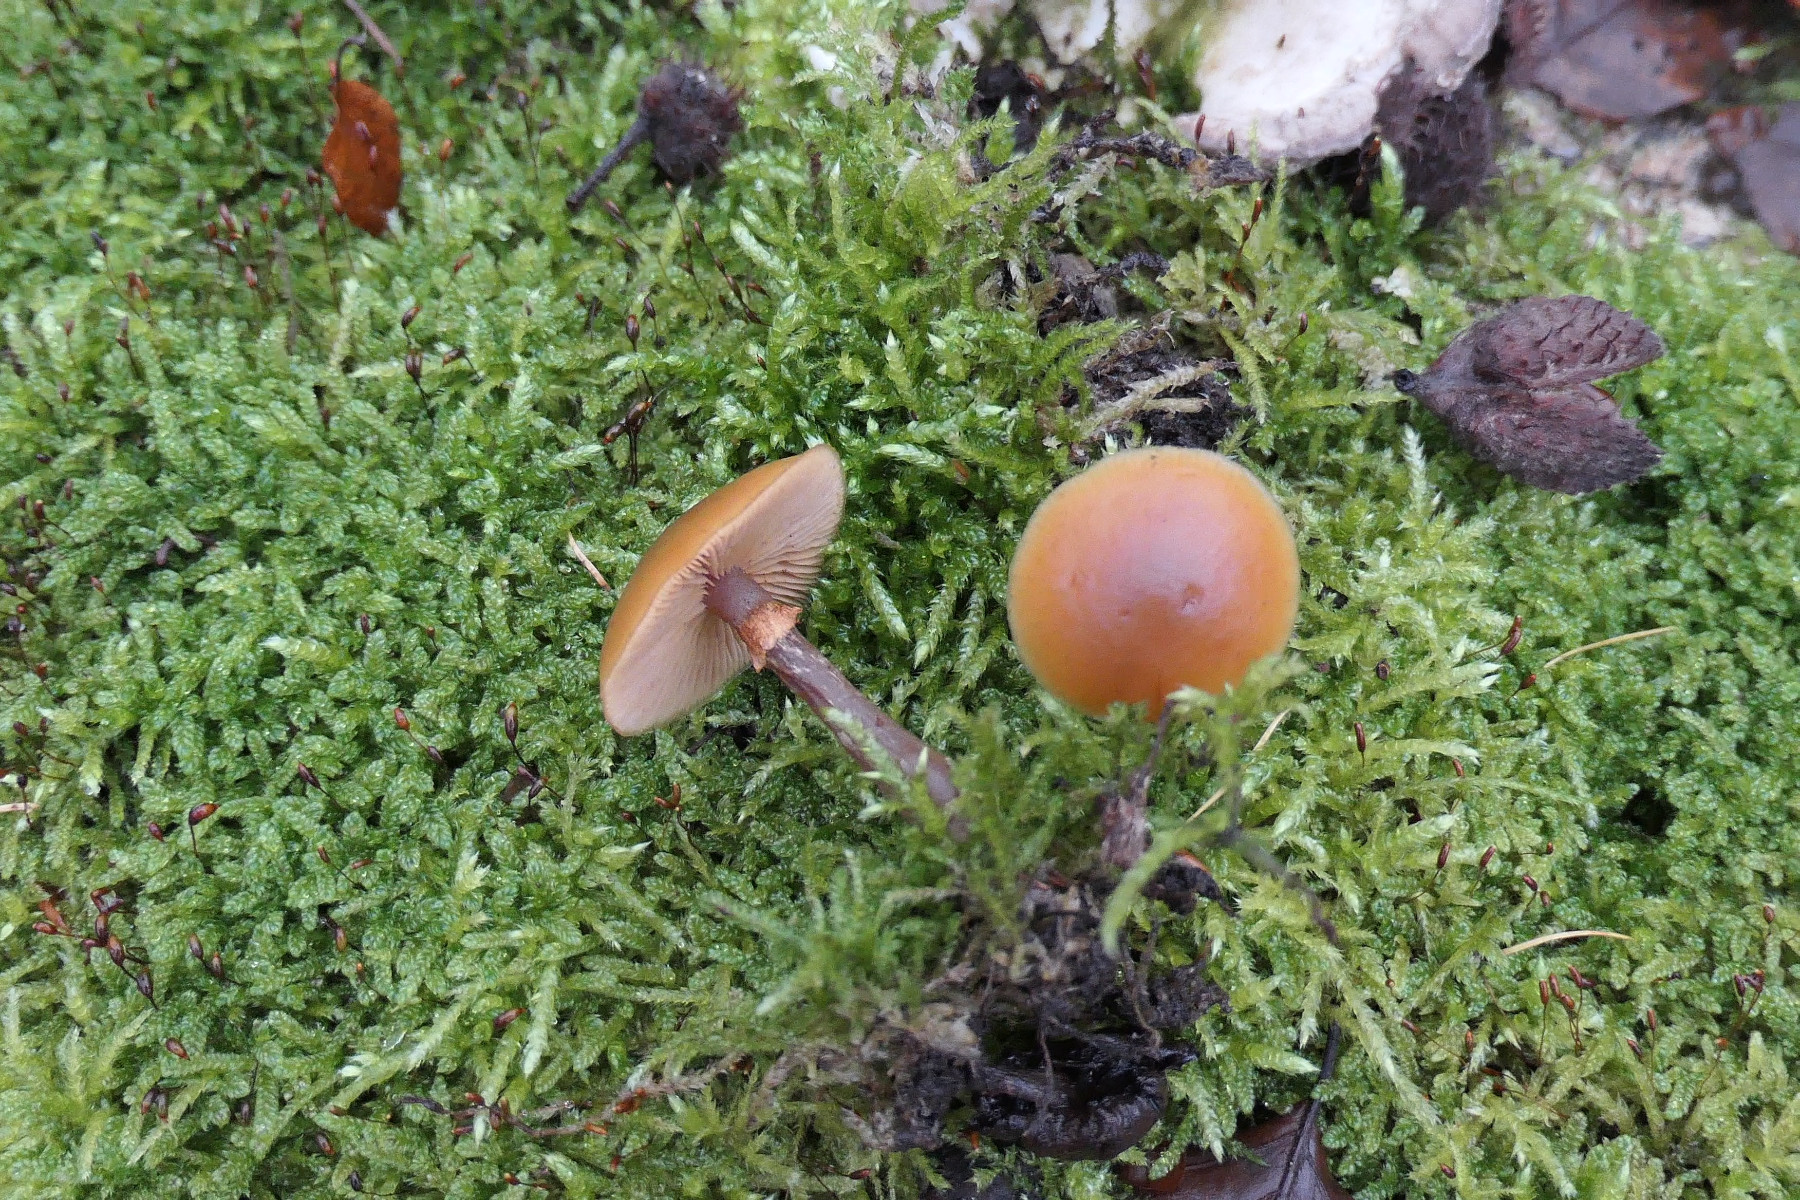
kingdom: Fungi
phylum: Basidiomycota
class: Agaricomycetes
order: Agaricales
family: Hymenogastraceae
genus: Galerina
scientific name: Galerina marginata
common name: randbæltet hjelmhat
